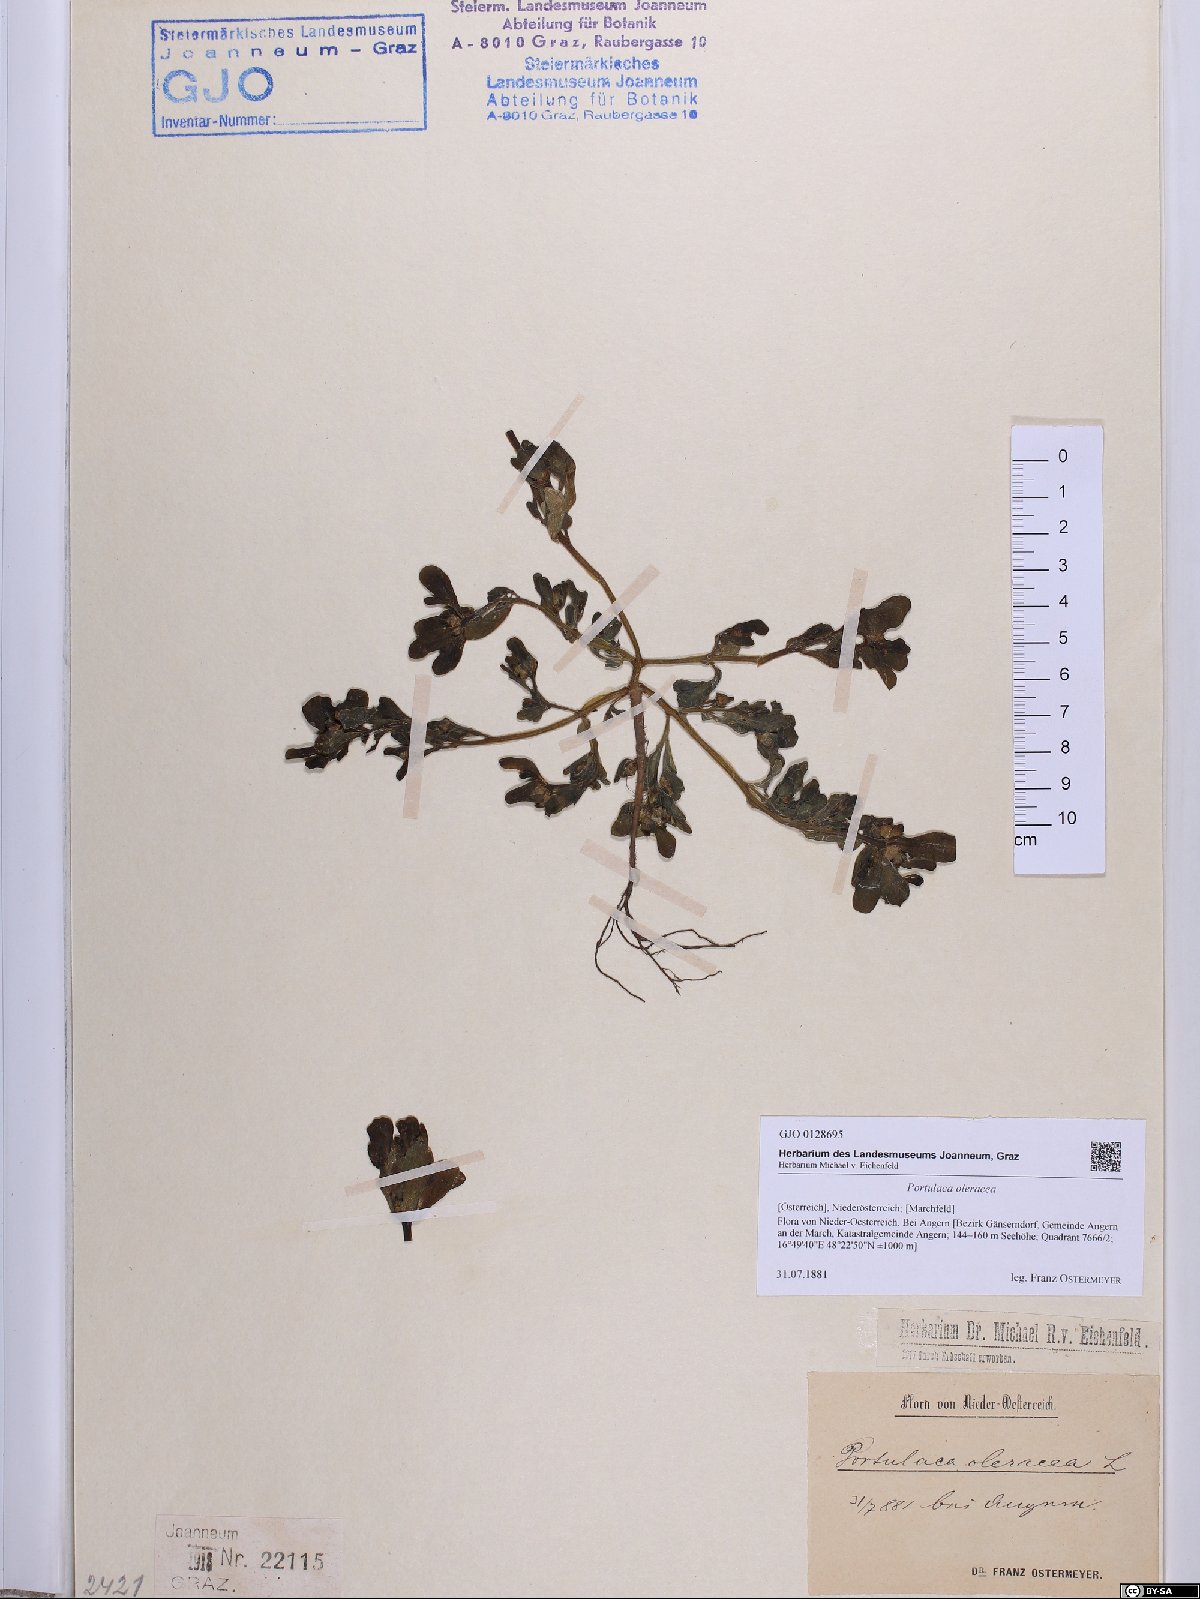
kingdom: Plantae
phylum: Tracheophyta
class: Magnoliopsida
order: Caryophyllales
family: Portulacaceae
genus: Portulaca
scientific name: Portulaca oleracea
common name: Common purslane
